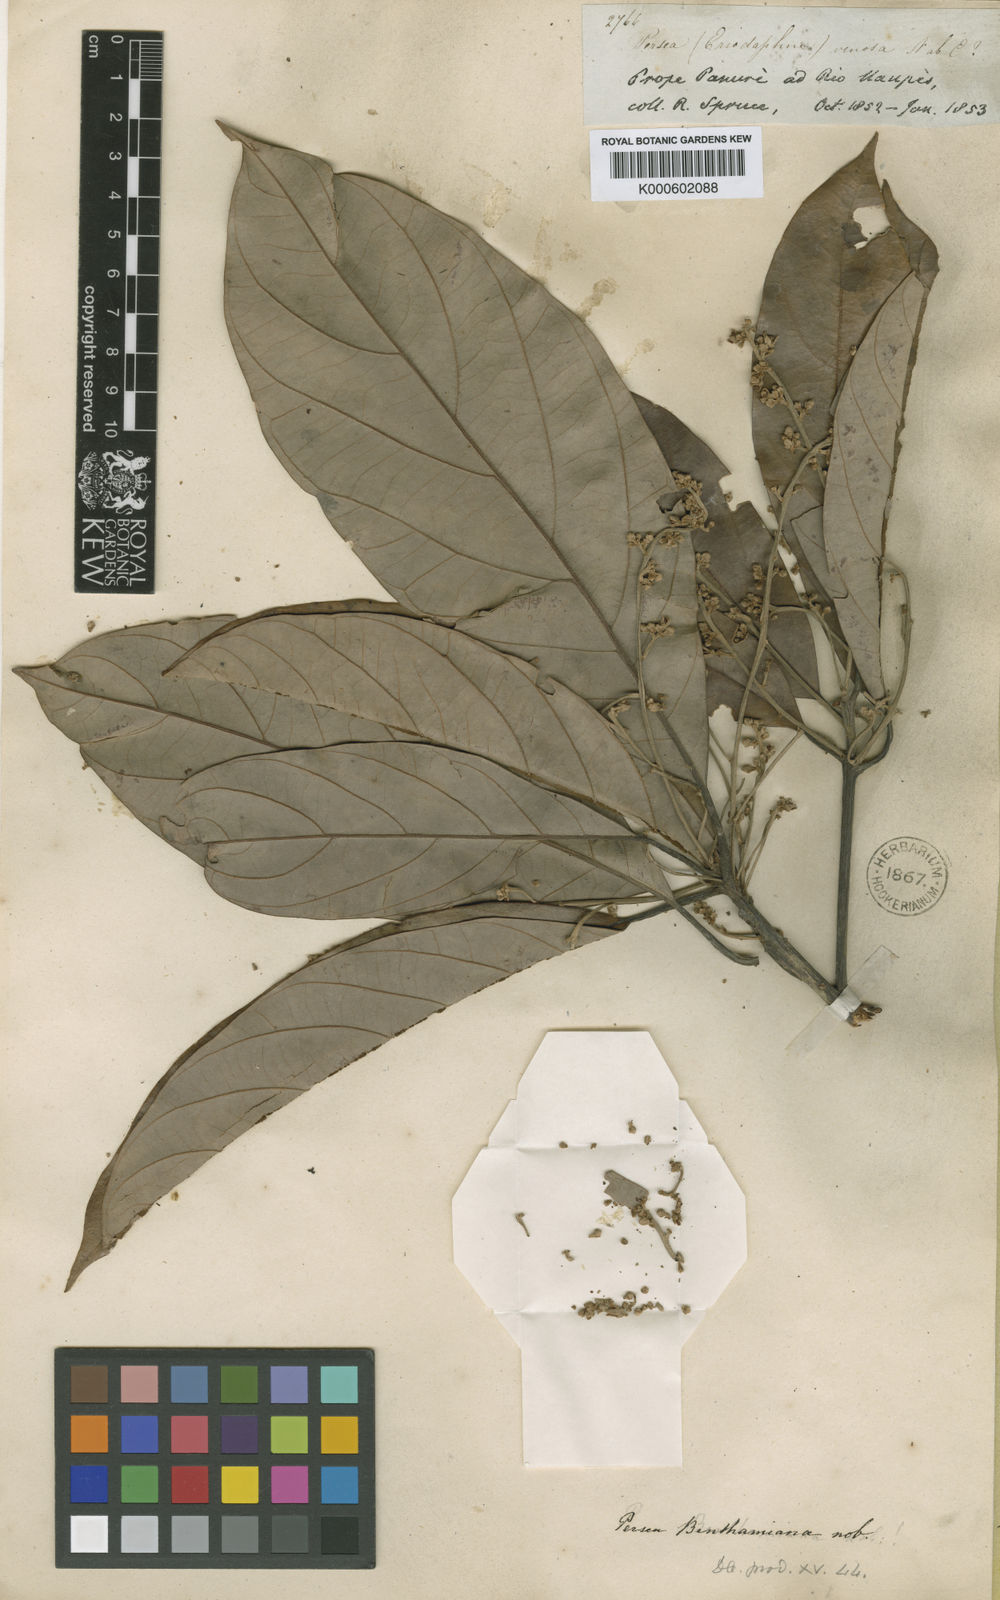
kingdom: Plantae
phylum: Tracheophyta
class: Magnoliopsida
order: Laurales
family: Lauraceae
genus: Persea
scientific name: Persea benthamiana
